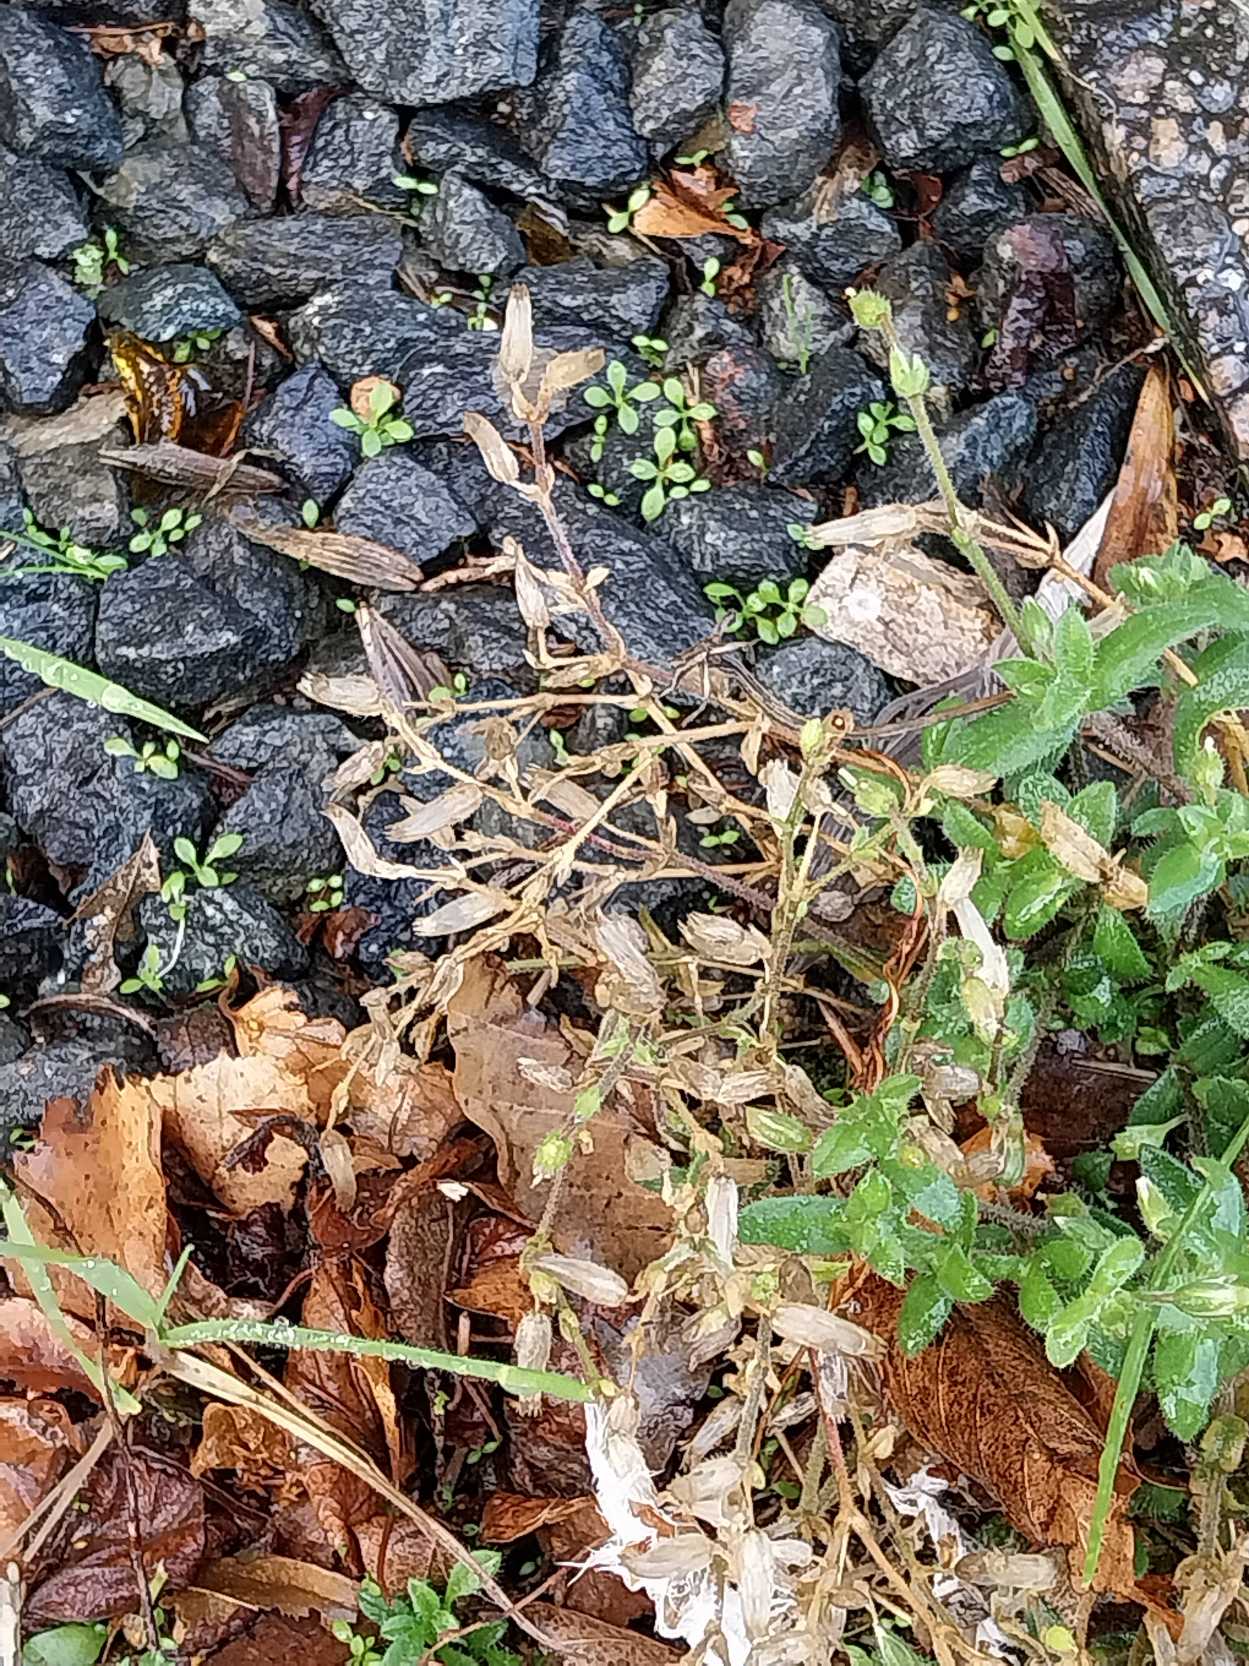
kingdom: Plantae
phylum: Tracheophyta
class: Magnoliopsida
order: Caryophyllales
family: Caryophyllaceae
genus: Cerastium
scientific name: Cerastium fontanum
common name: Almindelig hønsetarm
